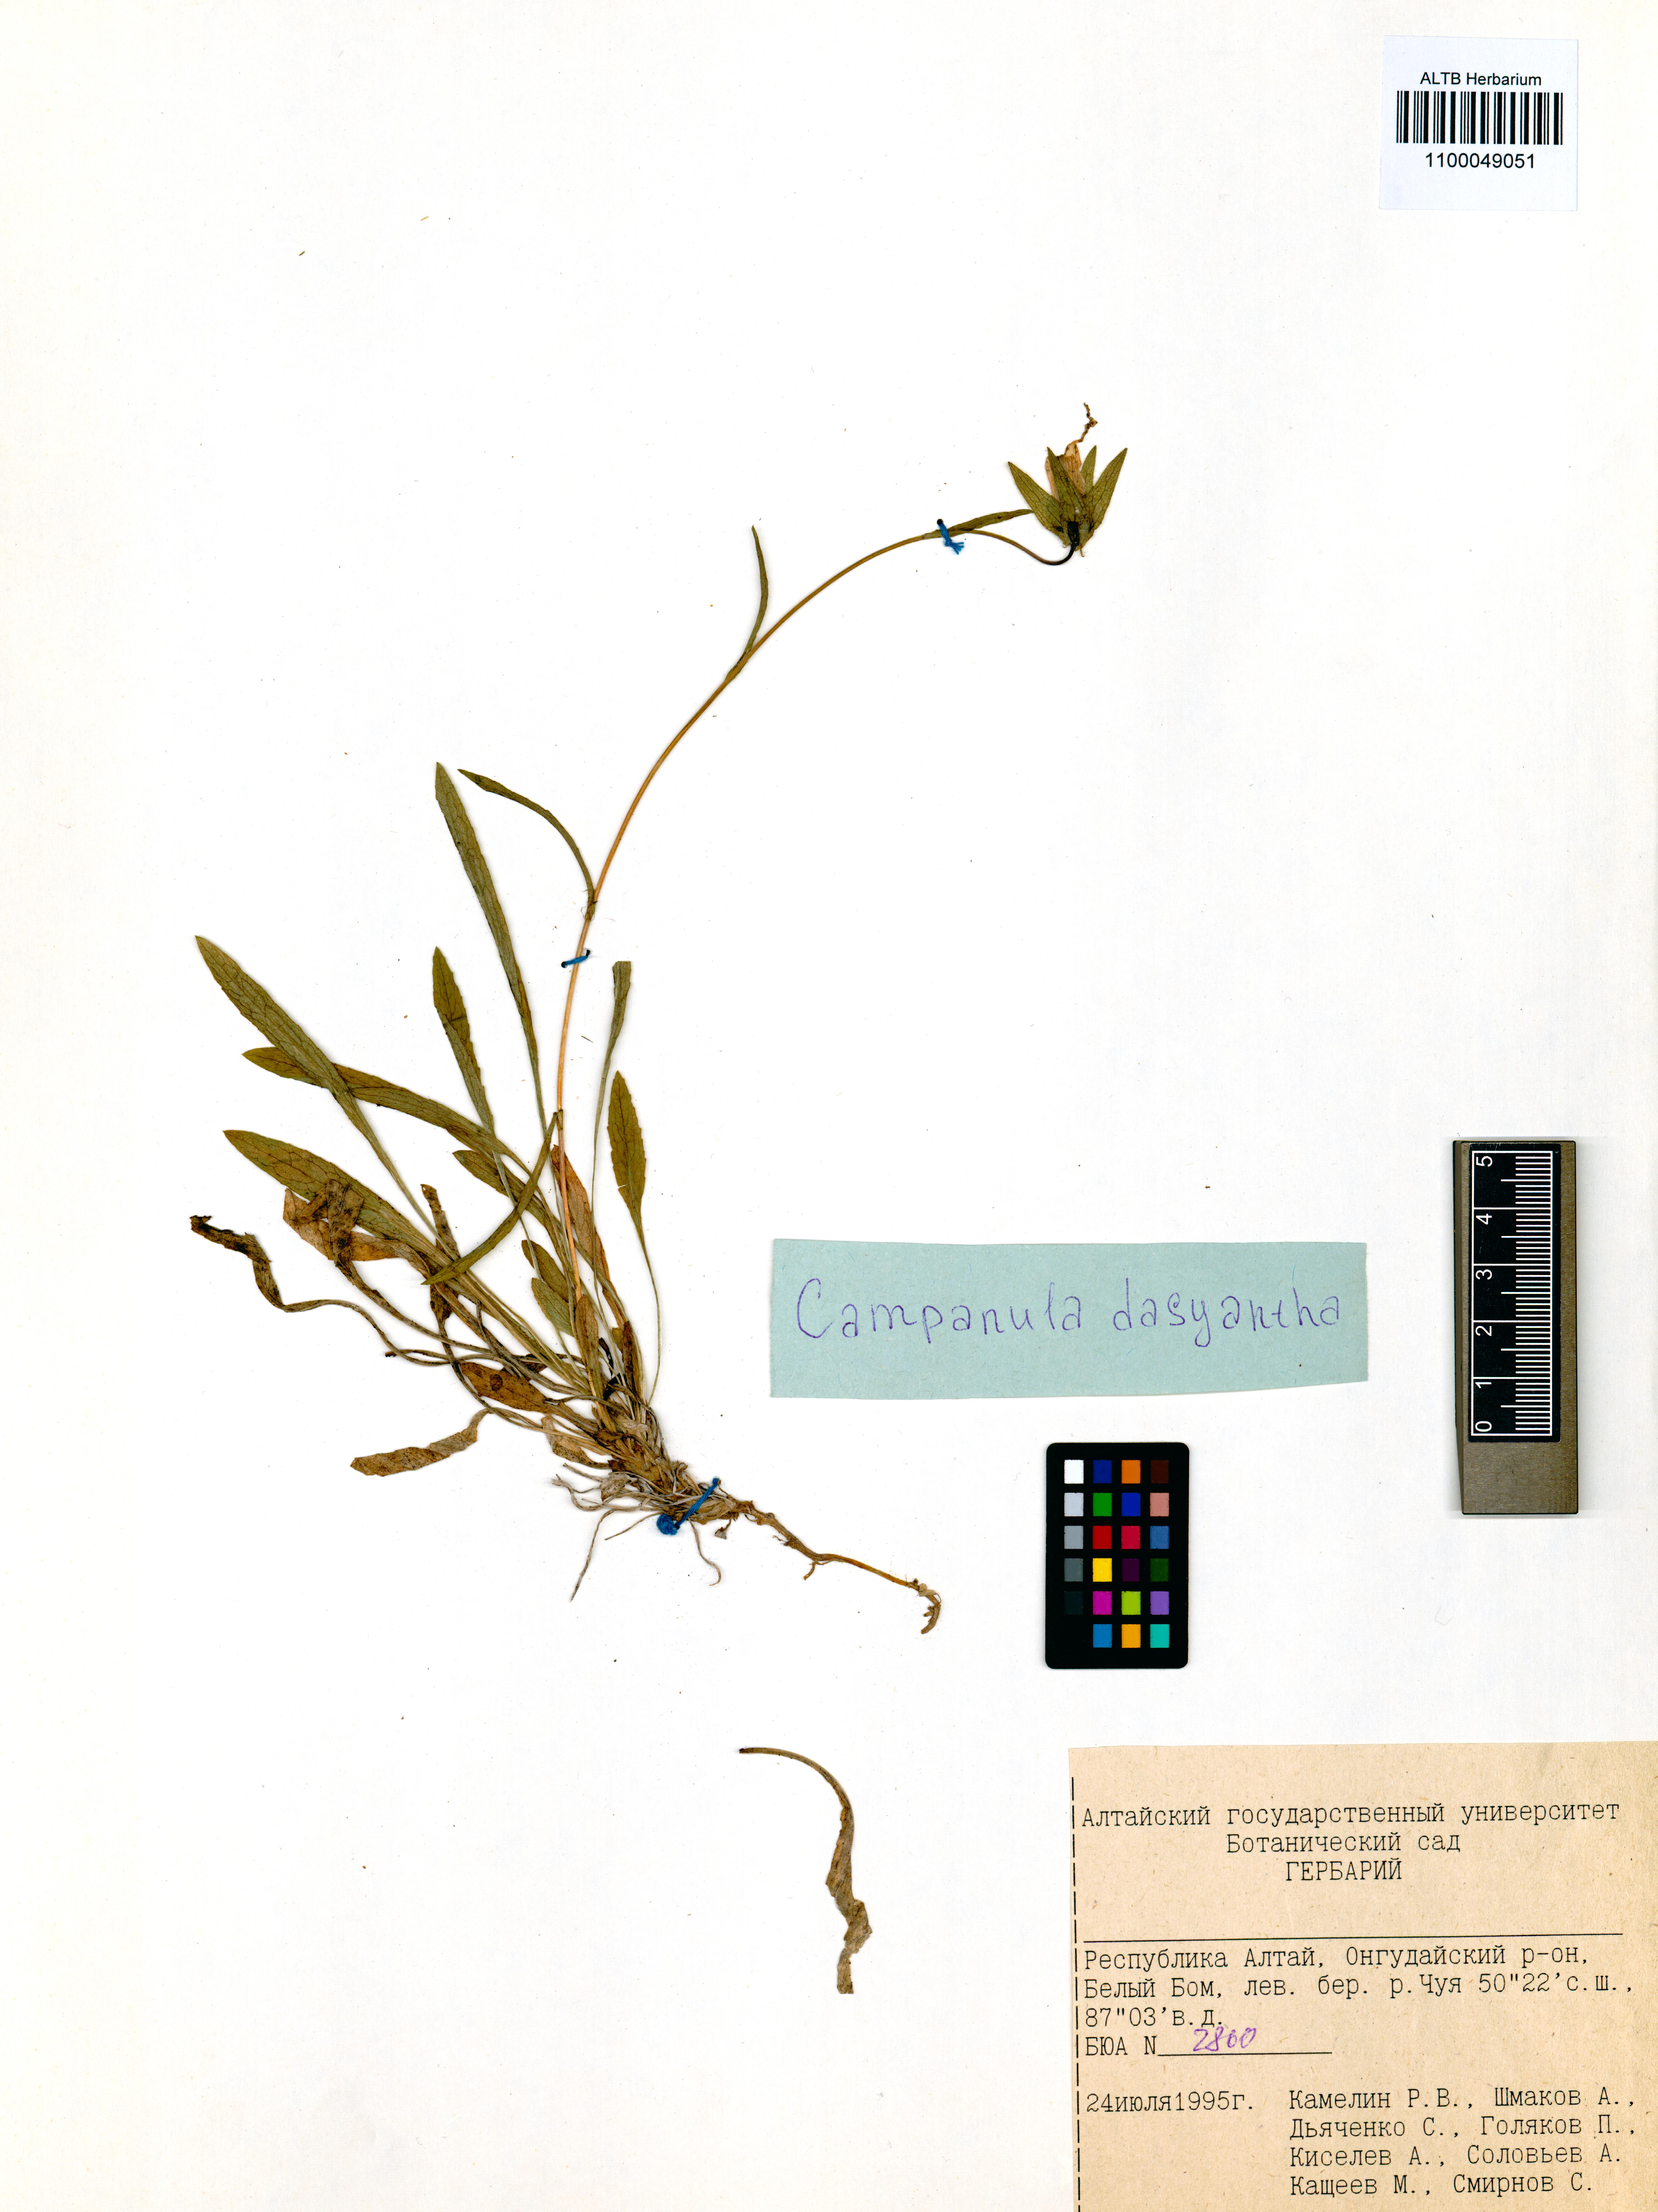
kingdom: Plantae
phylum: Tracheophyta
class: Magnoliopsida
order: Asterales
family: Campanulaceae
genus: Campanula
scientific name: Campanula dasyantha
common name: Hairyflower bellflower
